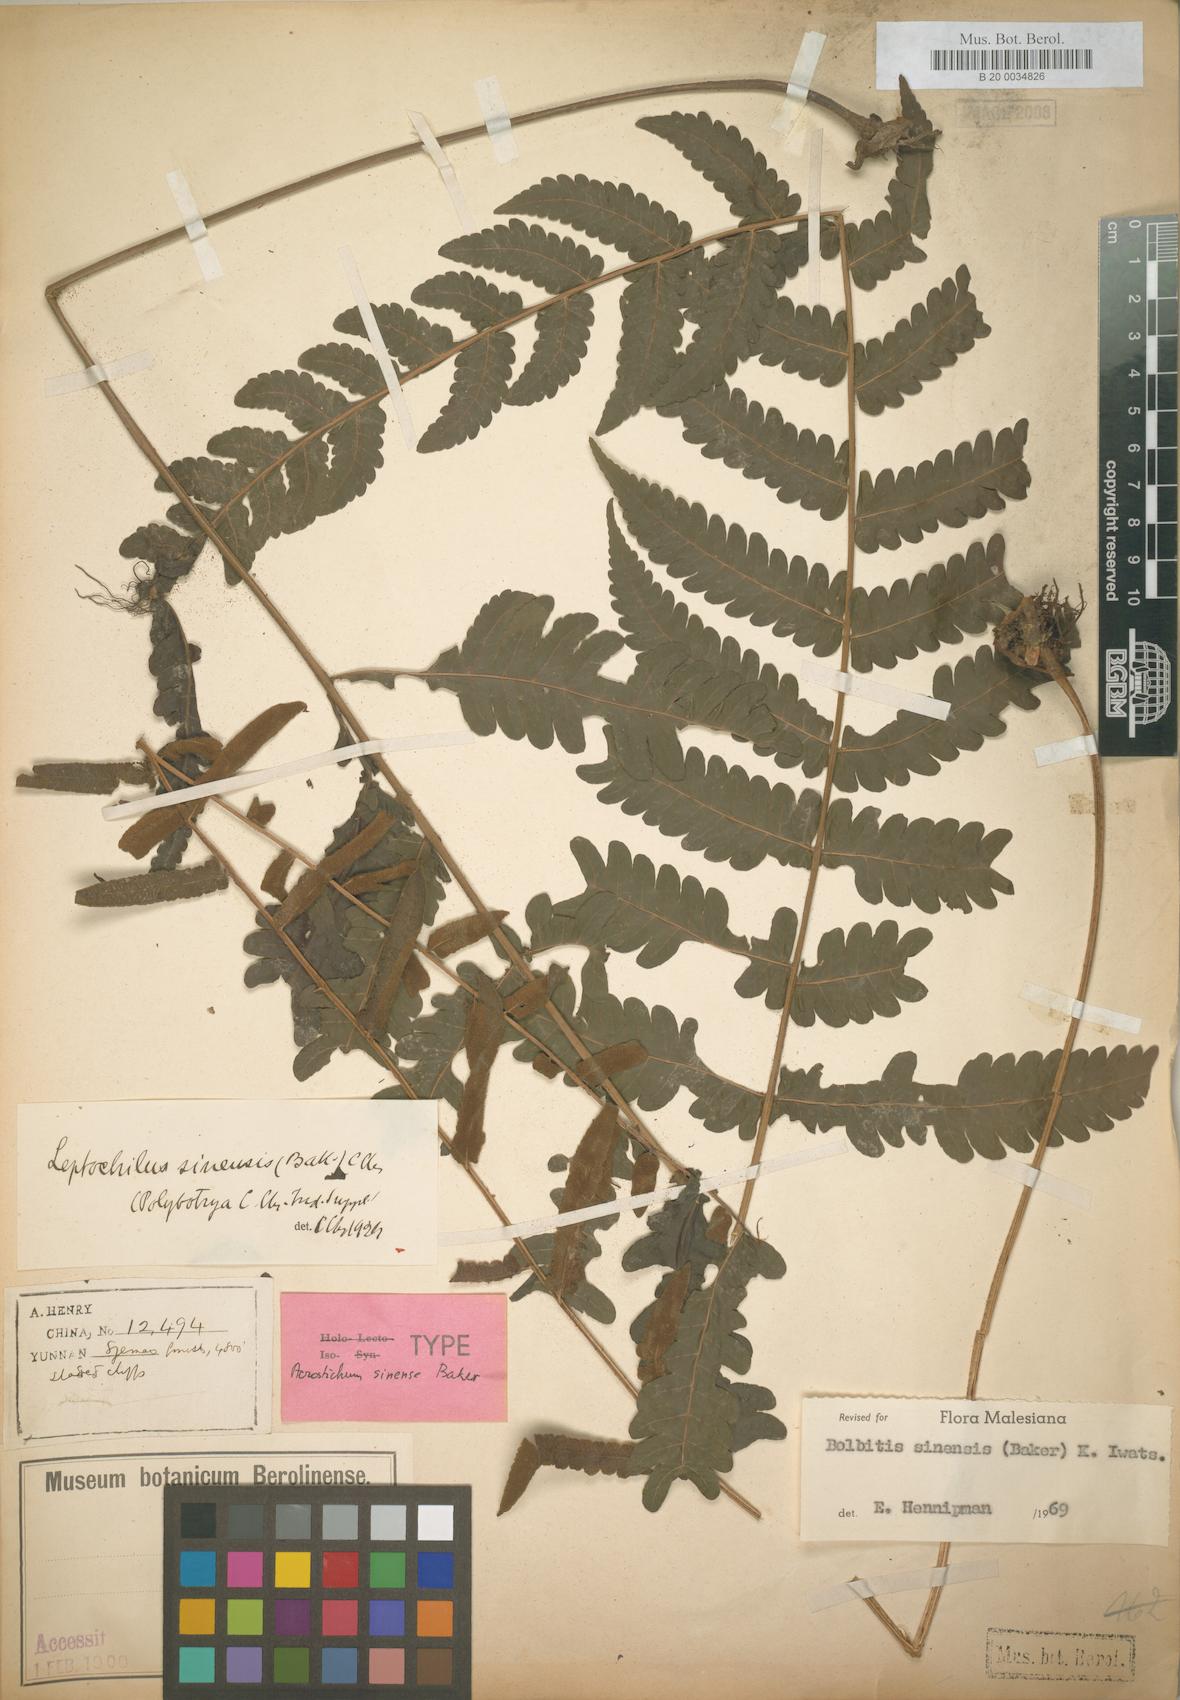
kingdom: Plantae
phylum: Tracheophyta
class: Polypodiopsida
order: Polypodiales
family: Dryopteridaceae
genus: Bolbitis
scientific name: Bolbitis sinensis
